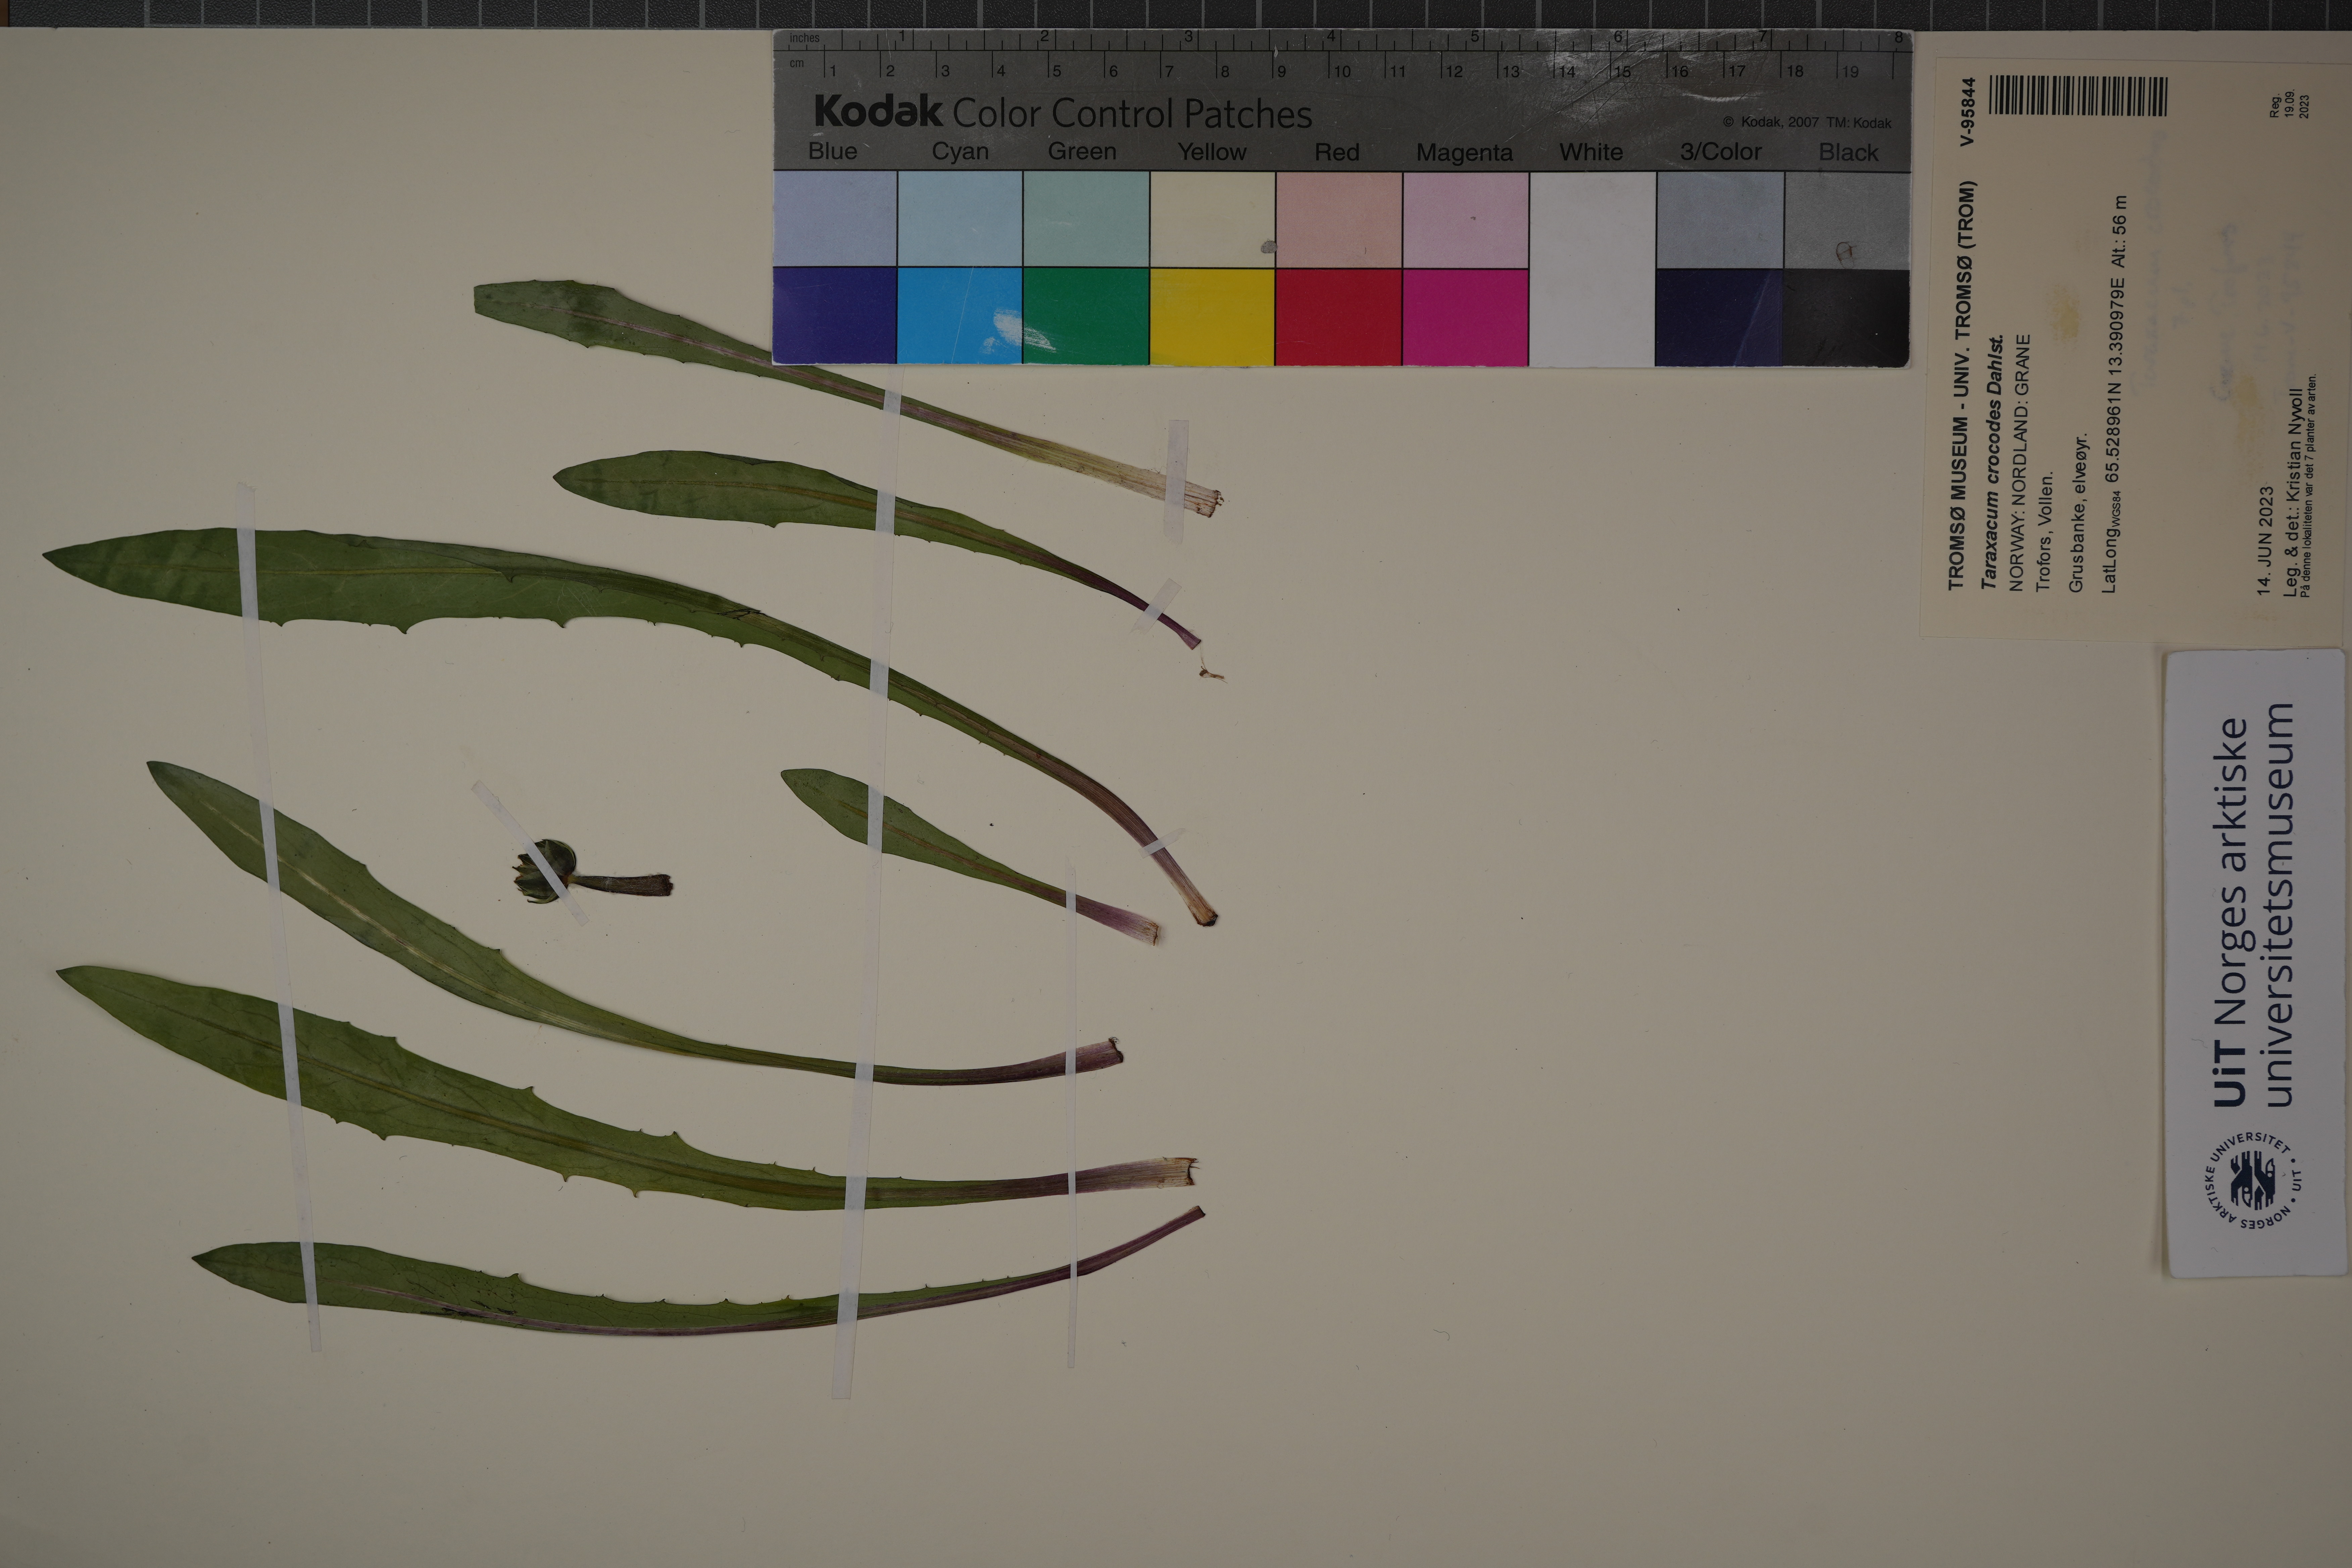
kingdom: Plantae
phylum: Tracheophyta
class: Magnoliopsida
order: Asterales
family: Asteraceae
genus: Taraxacum
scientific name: Taraxacum crocodes
